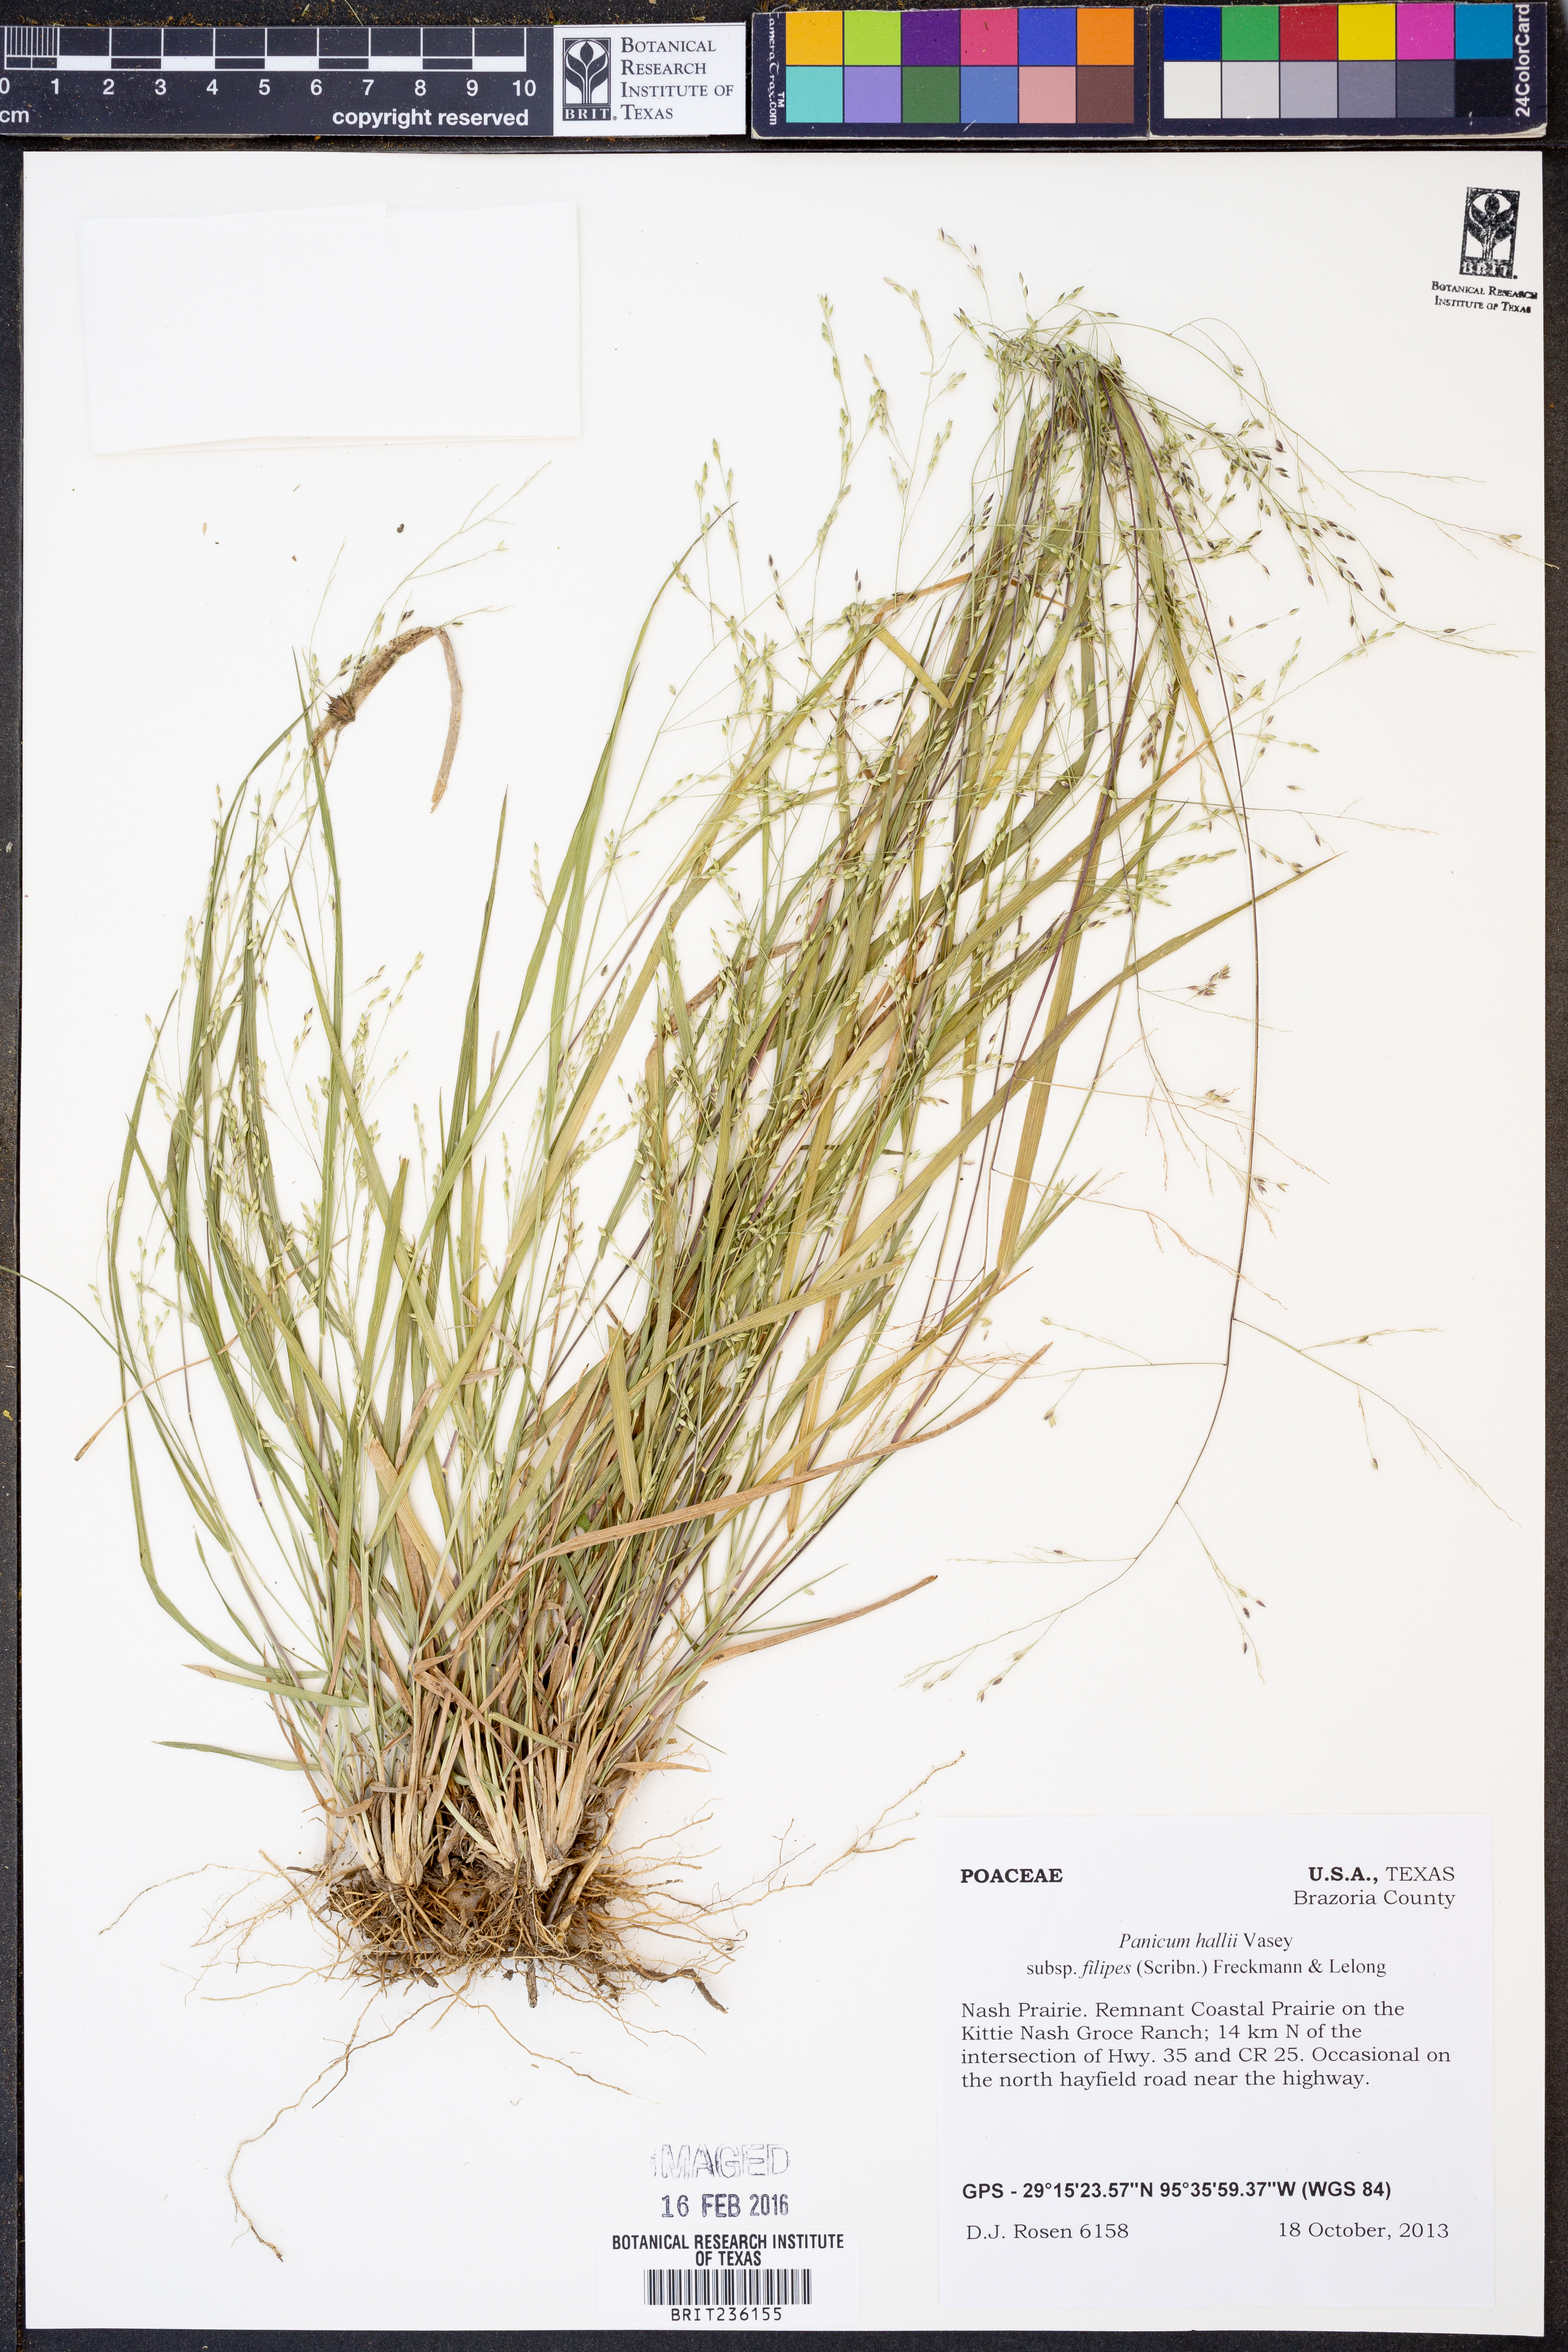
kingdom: Plantae
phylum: Tracheophyta
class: Liliopsida
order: Poales
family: Poaceae
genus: Panicum
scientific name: Panicum hallii
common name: Hall's witchgrass
